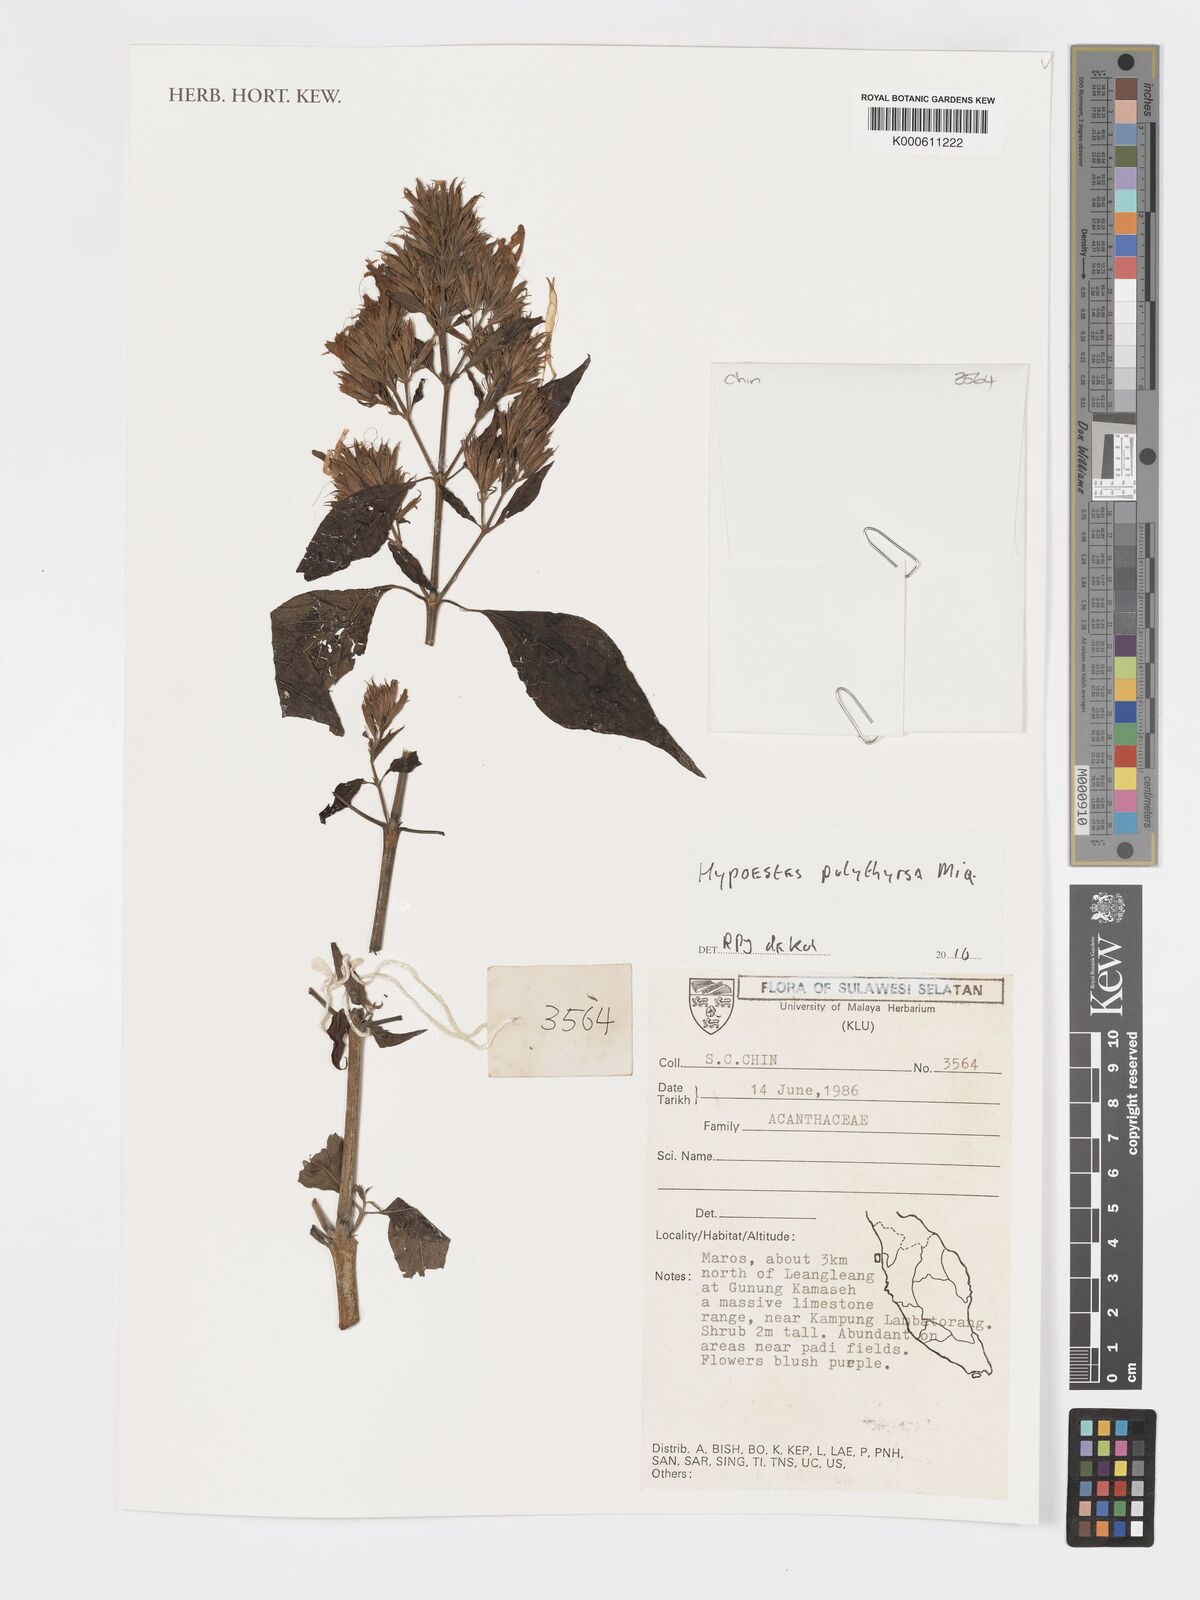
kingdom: Plantae
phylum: Tracheophyta
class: Magnoliopsida
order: Lamiales
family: Acanthaceae
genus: Hypoestes
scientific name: Hypoestes polythyrsa
